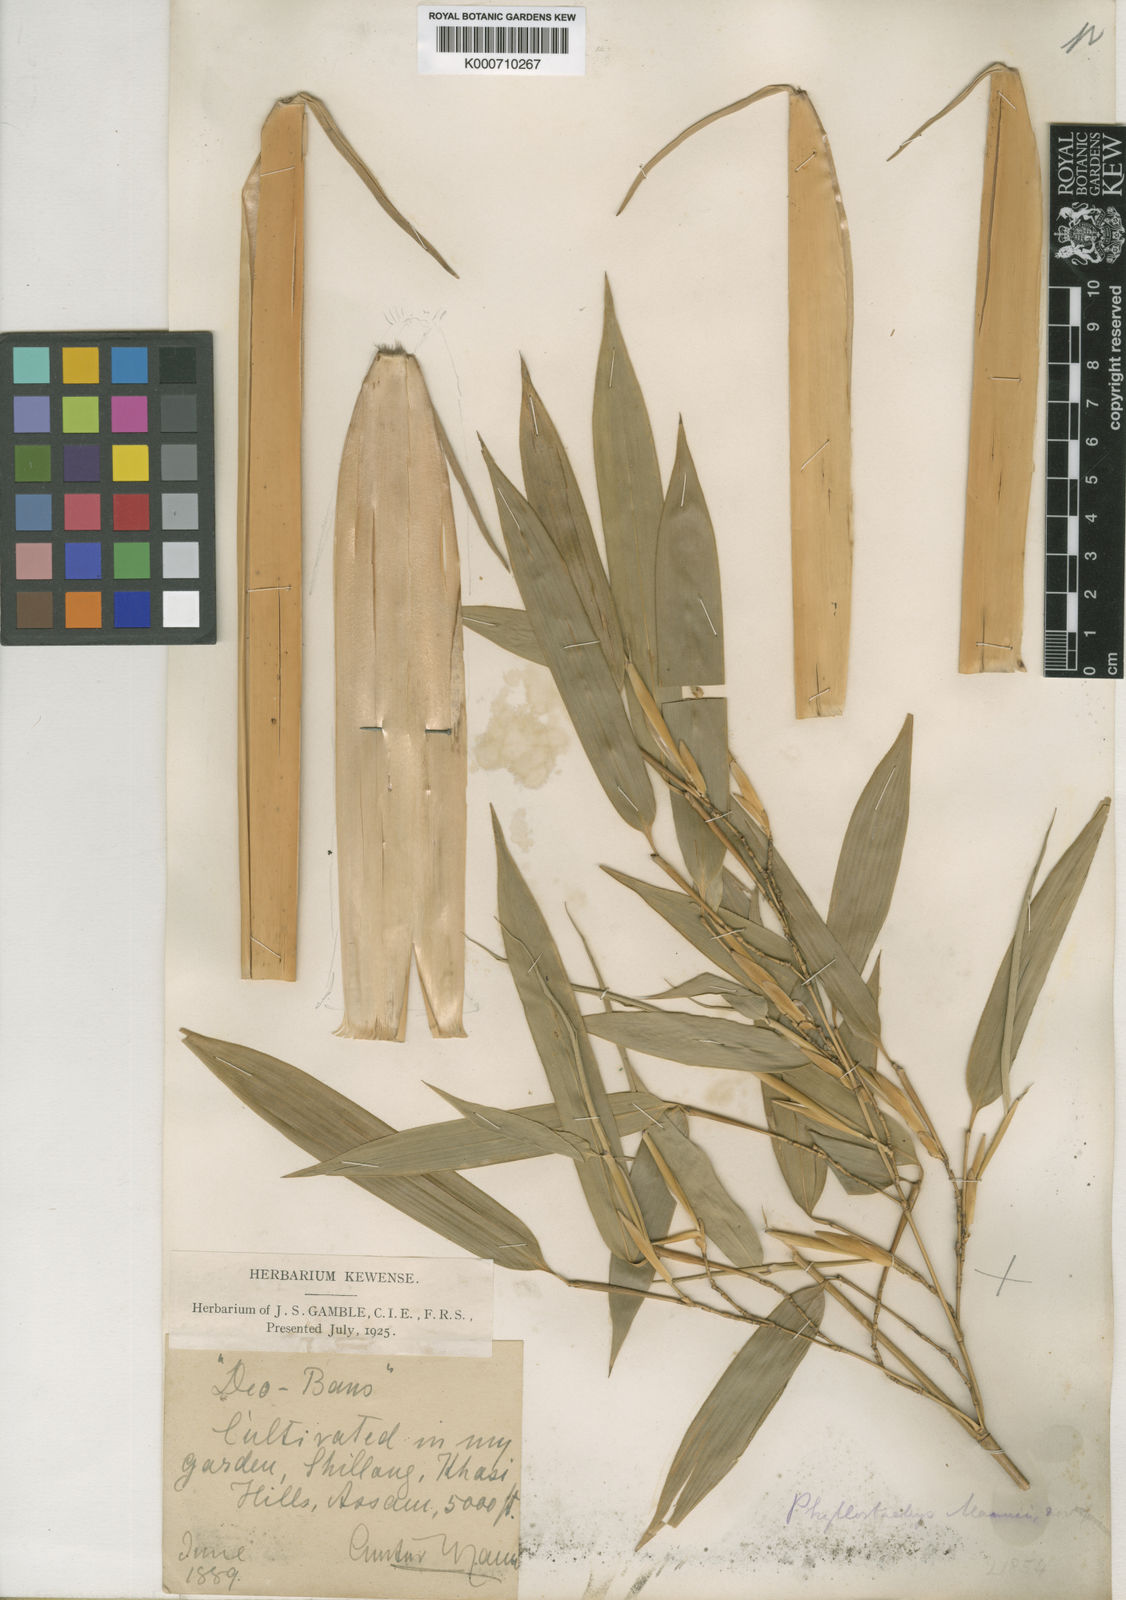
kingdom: Plantae
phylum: Tracheophyta
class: Liliopsida
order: Poales
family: Poaceae
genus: Phyllostachys
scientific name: Phyllostachys mannii
